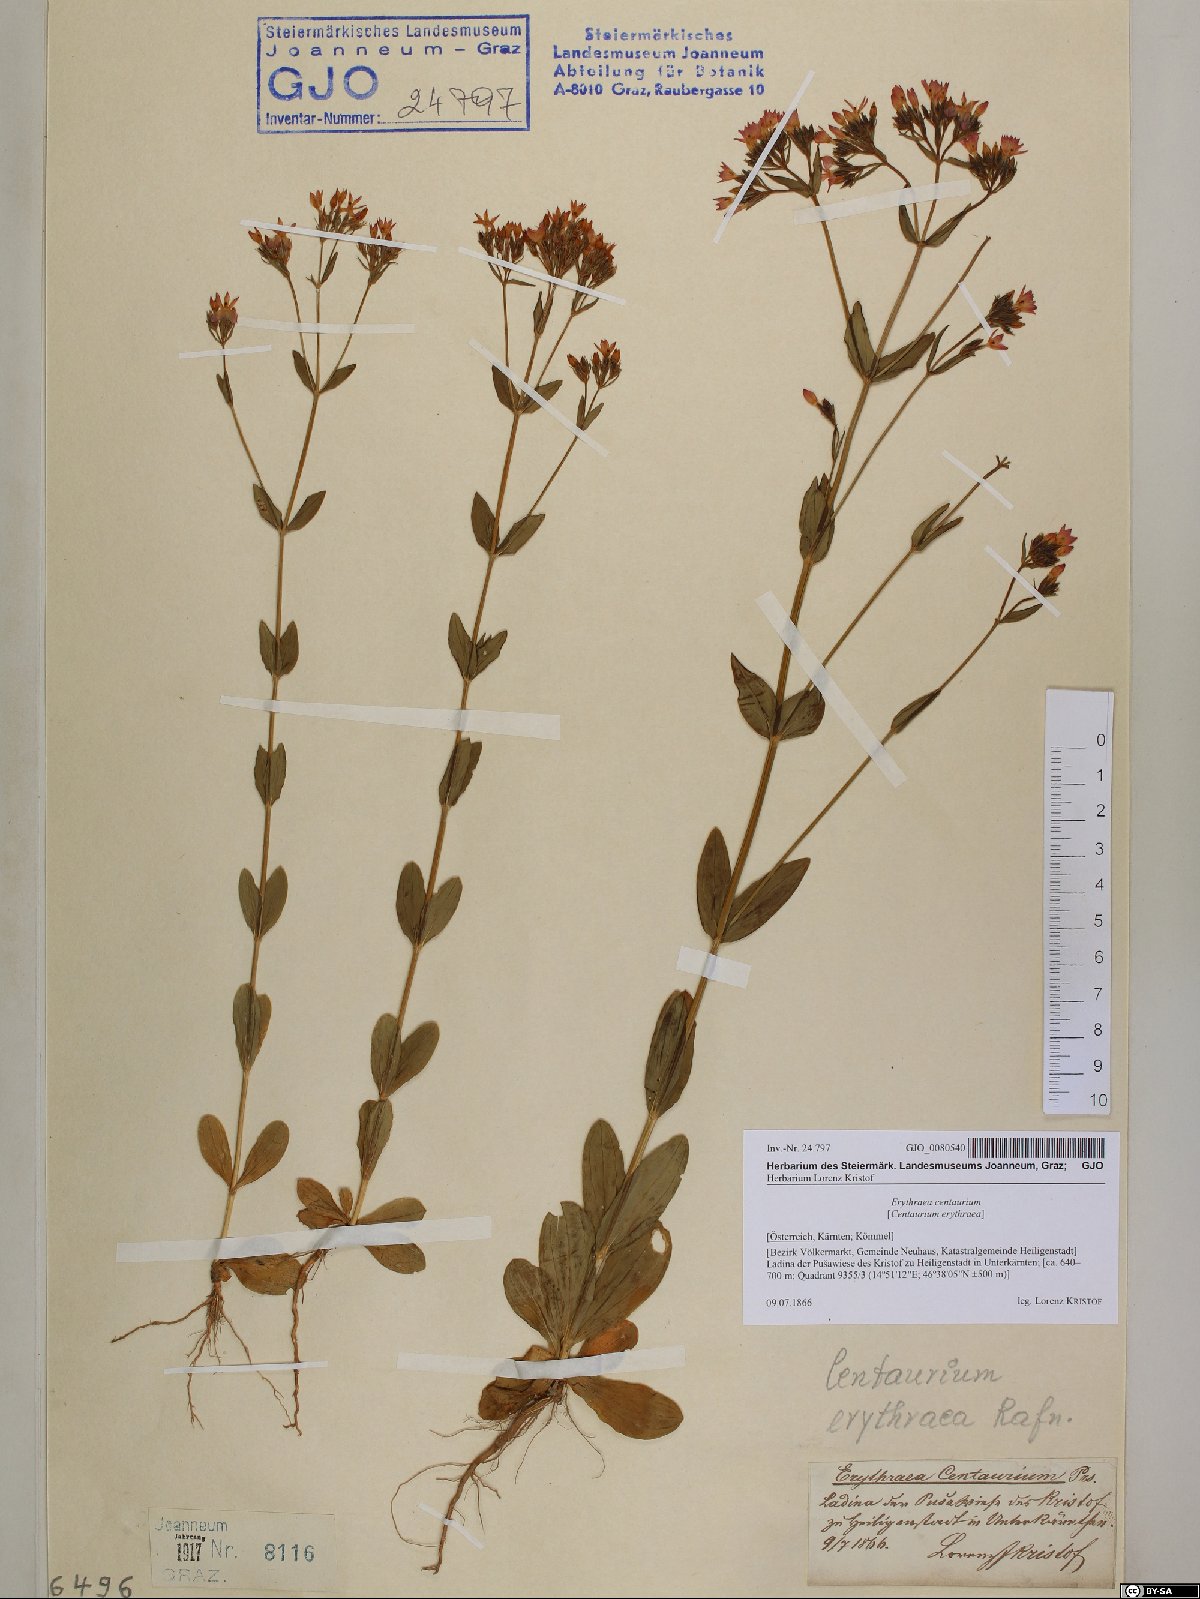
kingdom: Plantae
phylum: Tracheophyta
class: Magnoliopsida
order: Gentianales
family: Gentianaceae
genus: Centaurium
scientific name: Centaurium erythraea
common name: Common centaury
